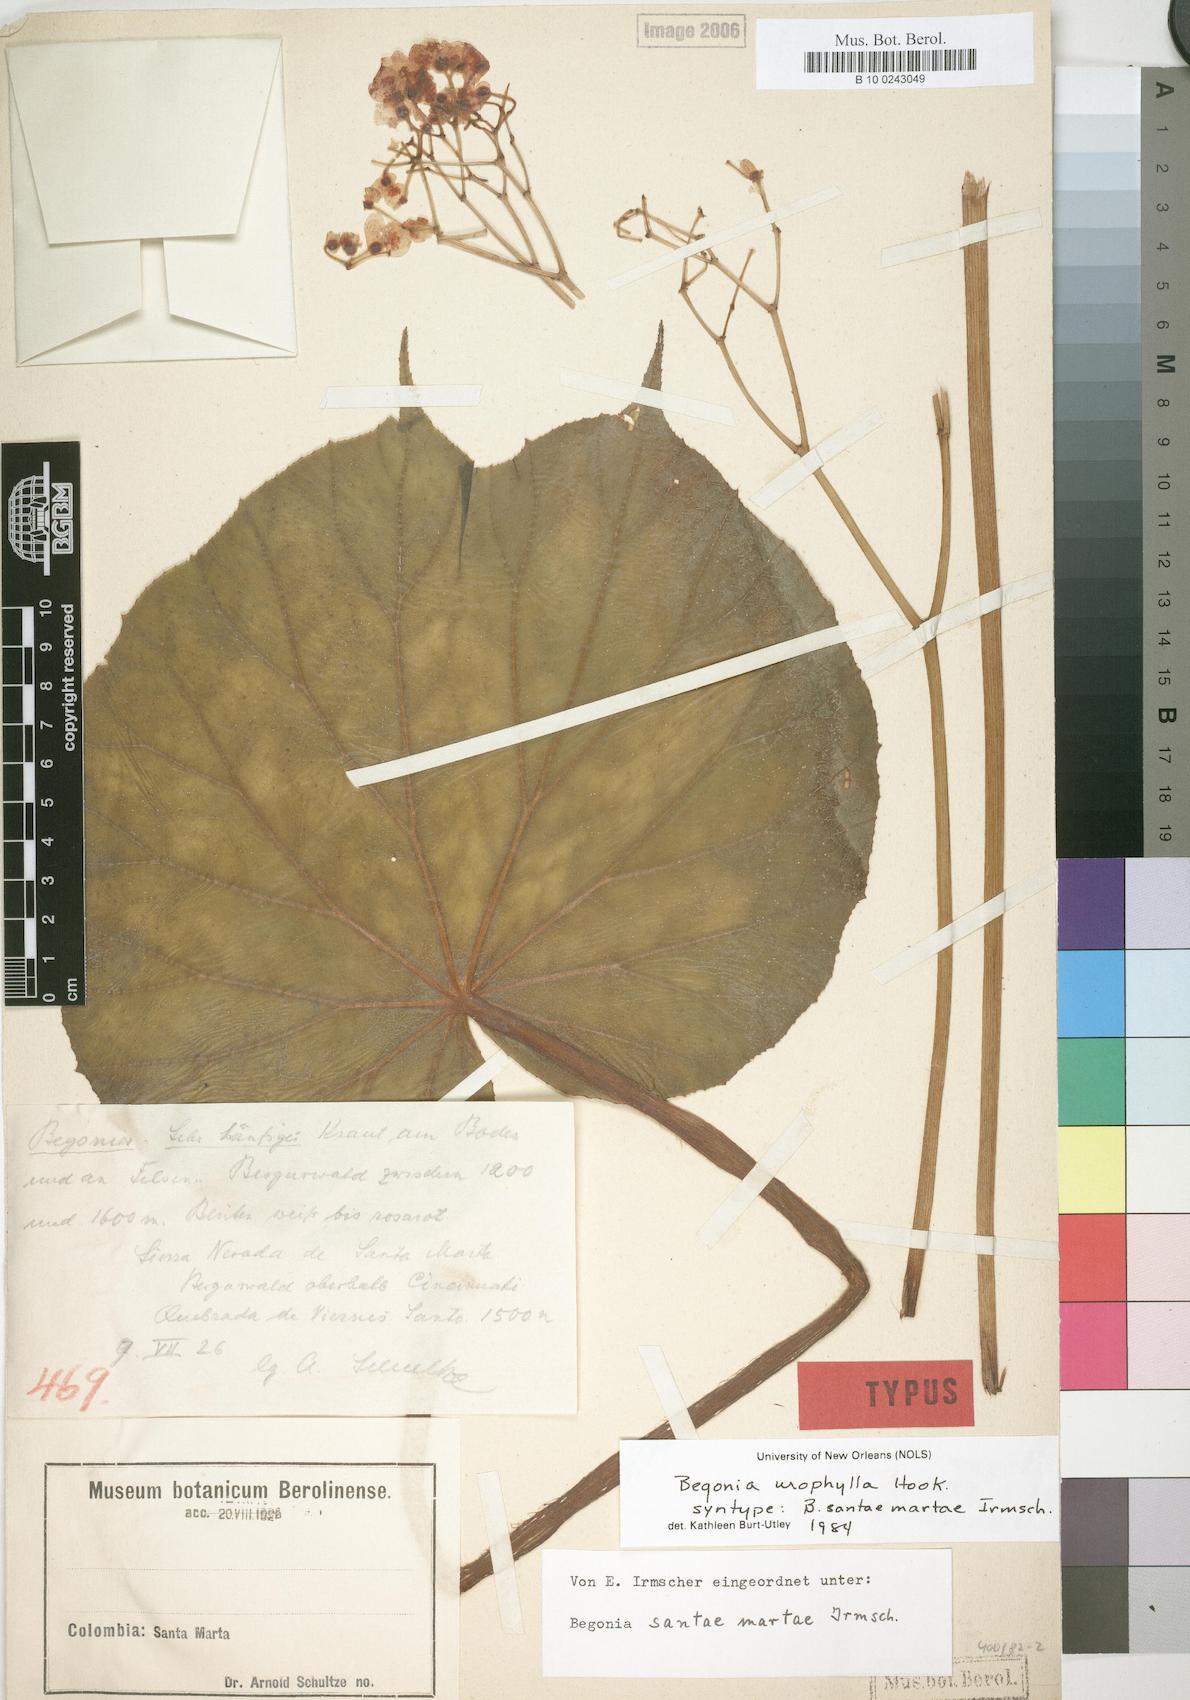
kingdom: Plantae
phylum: Tracheophyta
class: Magnoliopsida
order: Cucurbitales
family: Begoniaceae
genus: Begonia
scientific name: Begonia urophylla
